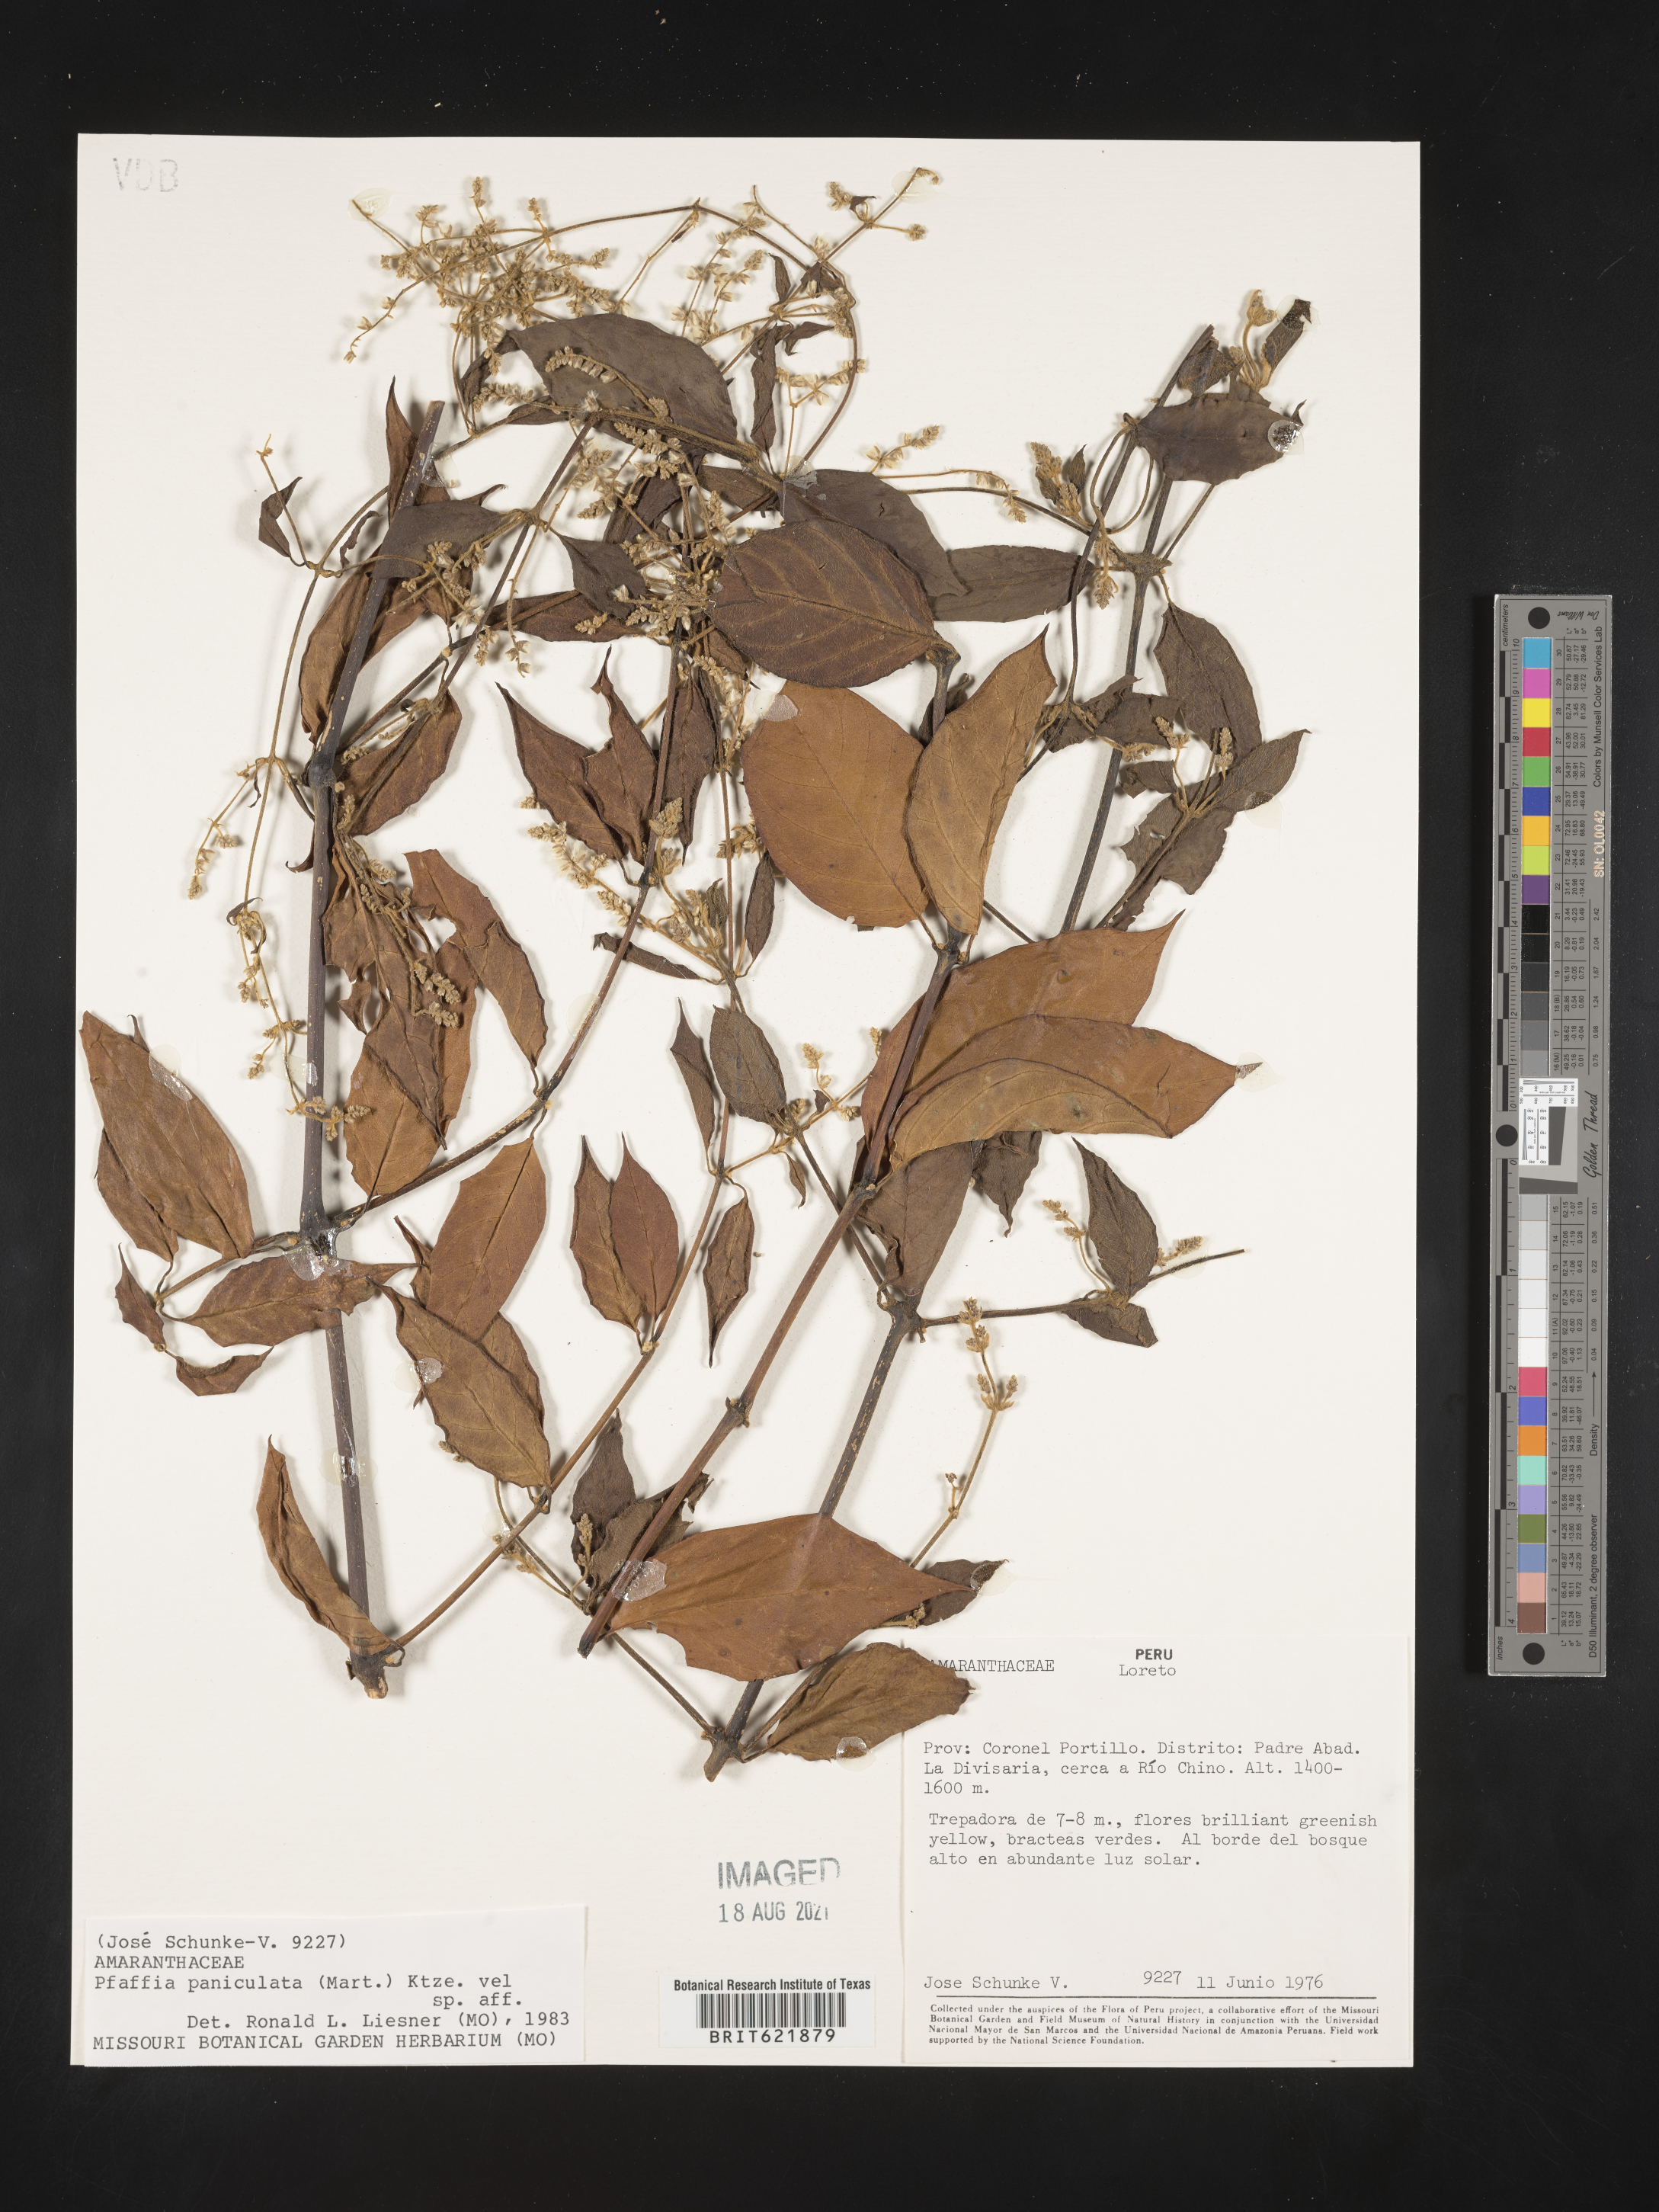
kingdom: Plantae
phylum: Tracheophyta
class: Magnoliopsida
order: Caryophyllales
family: Amaranthaceae
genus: Hebanthe
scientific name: Hebanthe erianthos
